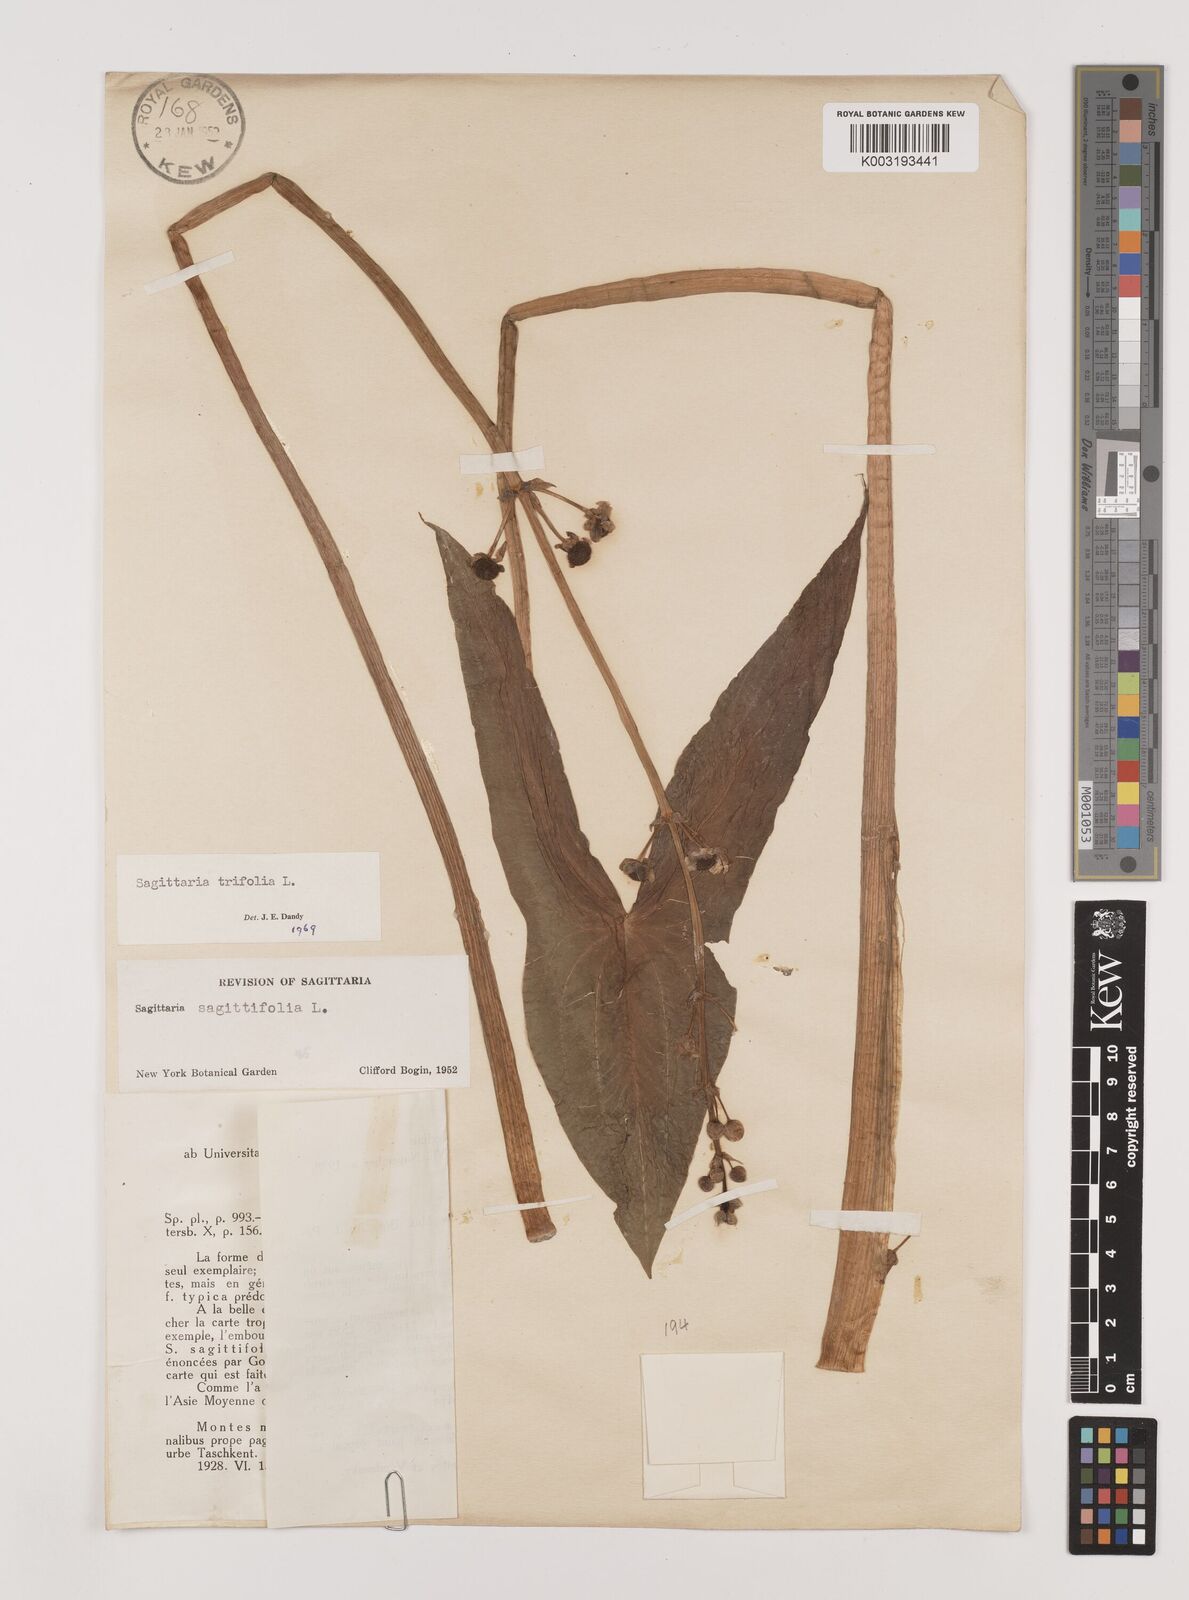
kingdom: Plantae
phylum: Tracheophyta
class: Liliopsida
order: Alismatales
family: Alismataceae
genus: Sagittaria
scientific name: Sagittaria trifolia
